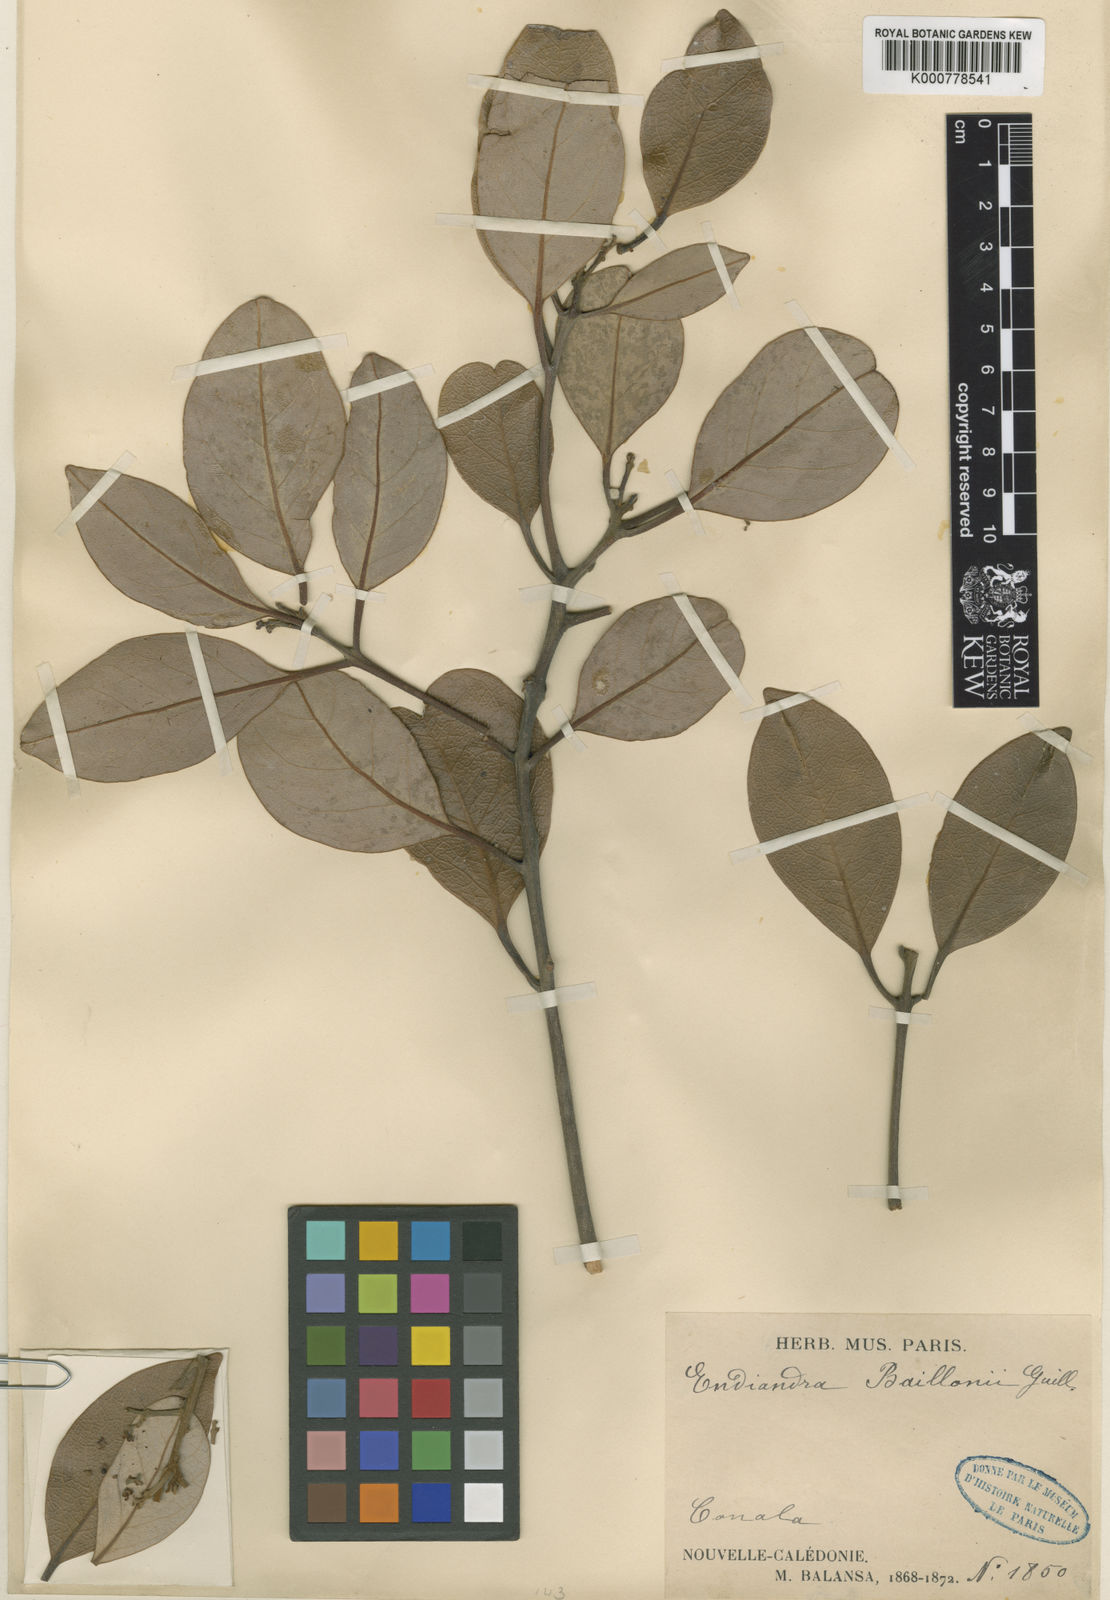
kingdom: Plantae
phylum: Tracheophyta
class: Magnoliopsida
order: Laurales
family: Lauraceae
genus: Endiandra
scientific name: Endiandra baillonii
